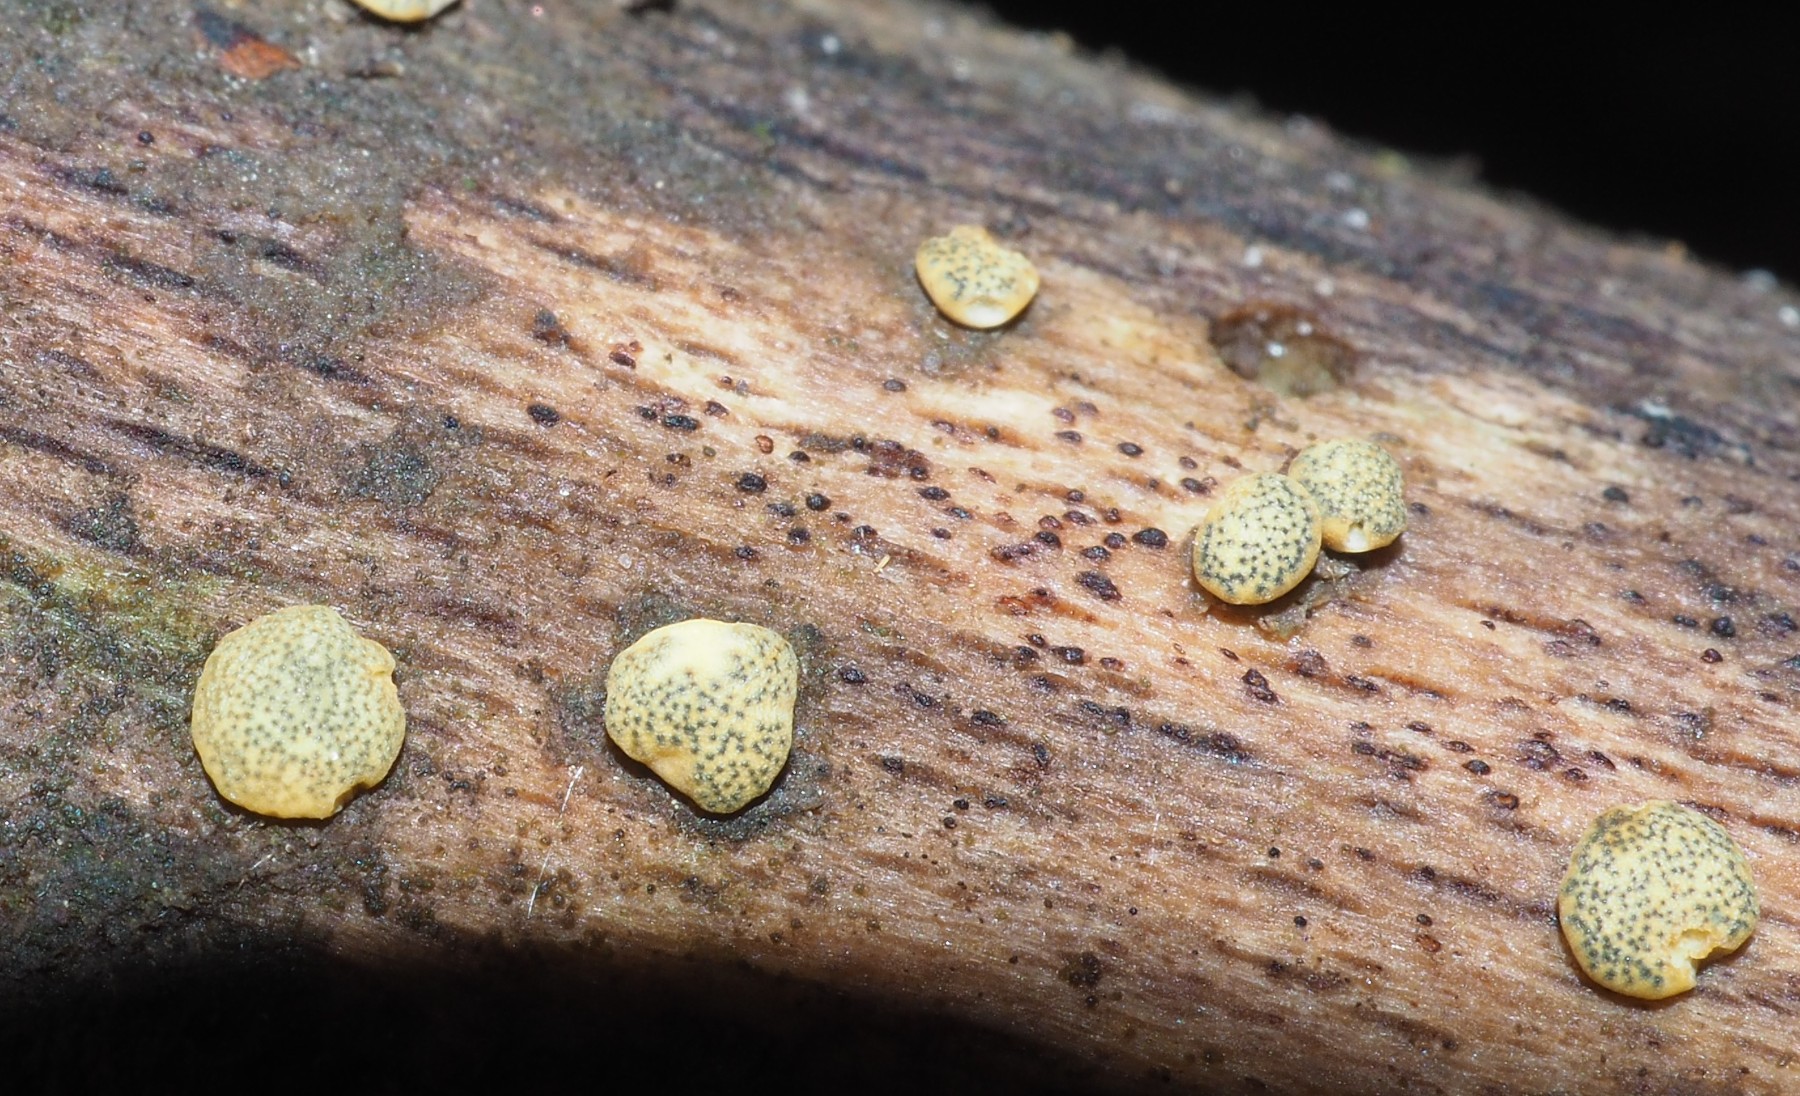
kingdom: Fungi
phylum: Ascomycota
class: Sordariomycetes
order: Hypocreales
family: Hypocreaceae
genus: Trichoderma
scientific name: Trichoderma aureoviride
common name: æggegul kødkerne
